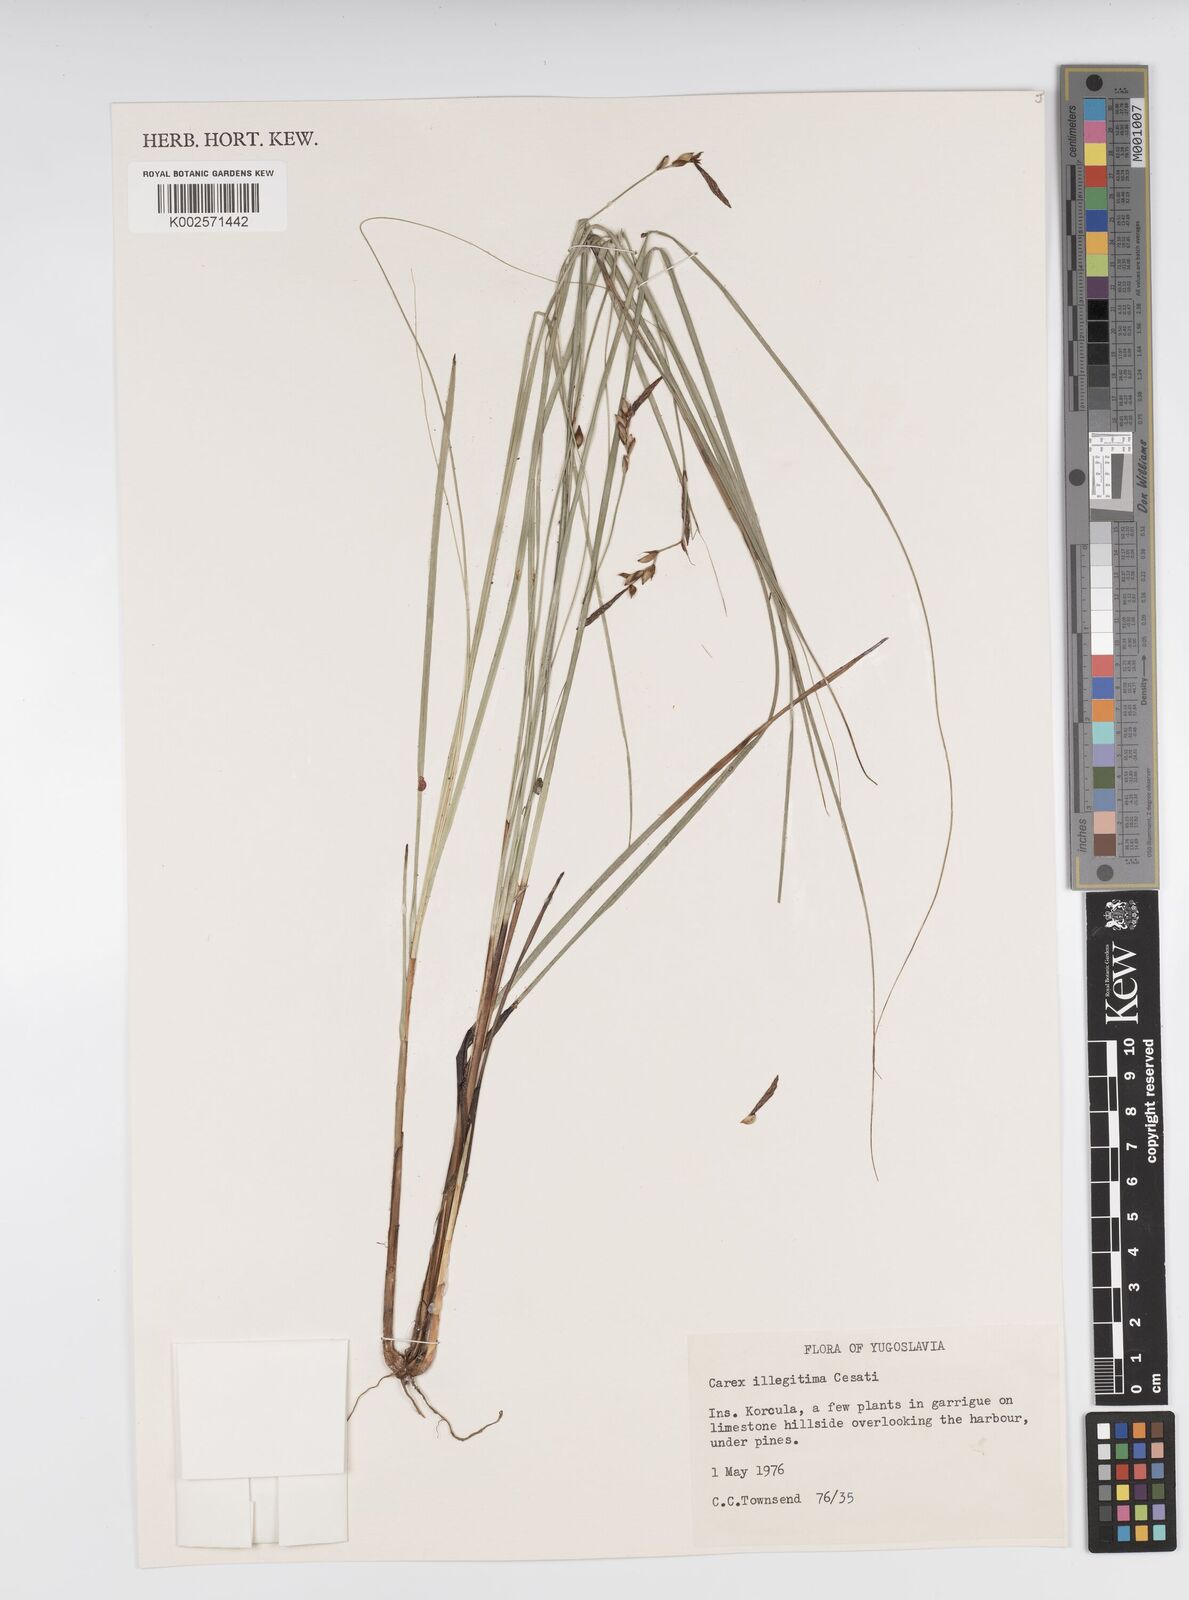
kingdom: Plantae
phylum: Tracheophyta
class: Liliopsida
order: Poales
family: Cyperaceae
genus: Carex
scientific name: Carex illegitima
